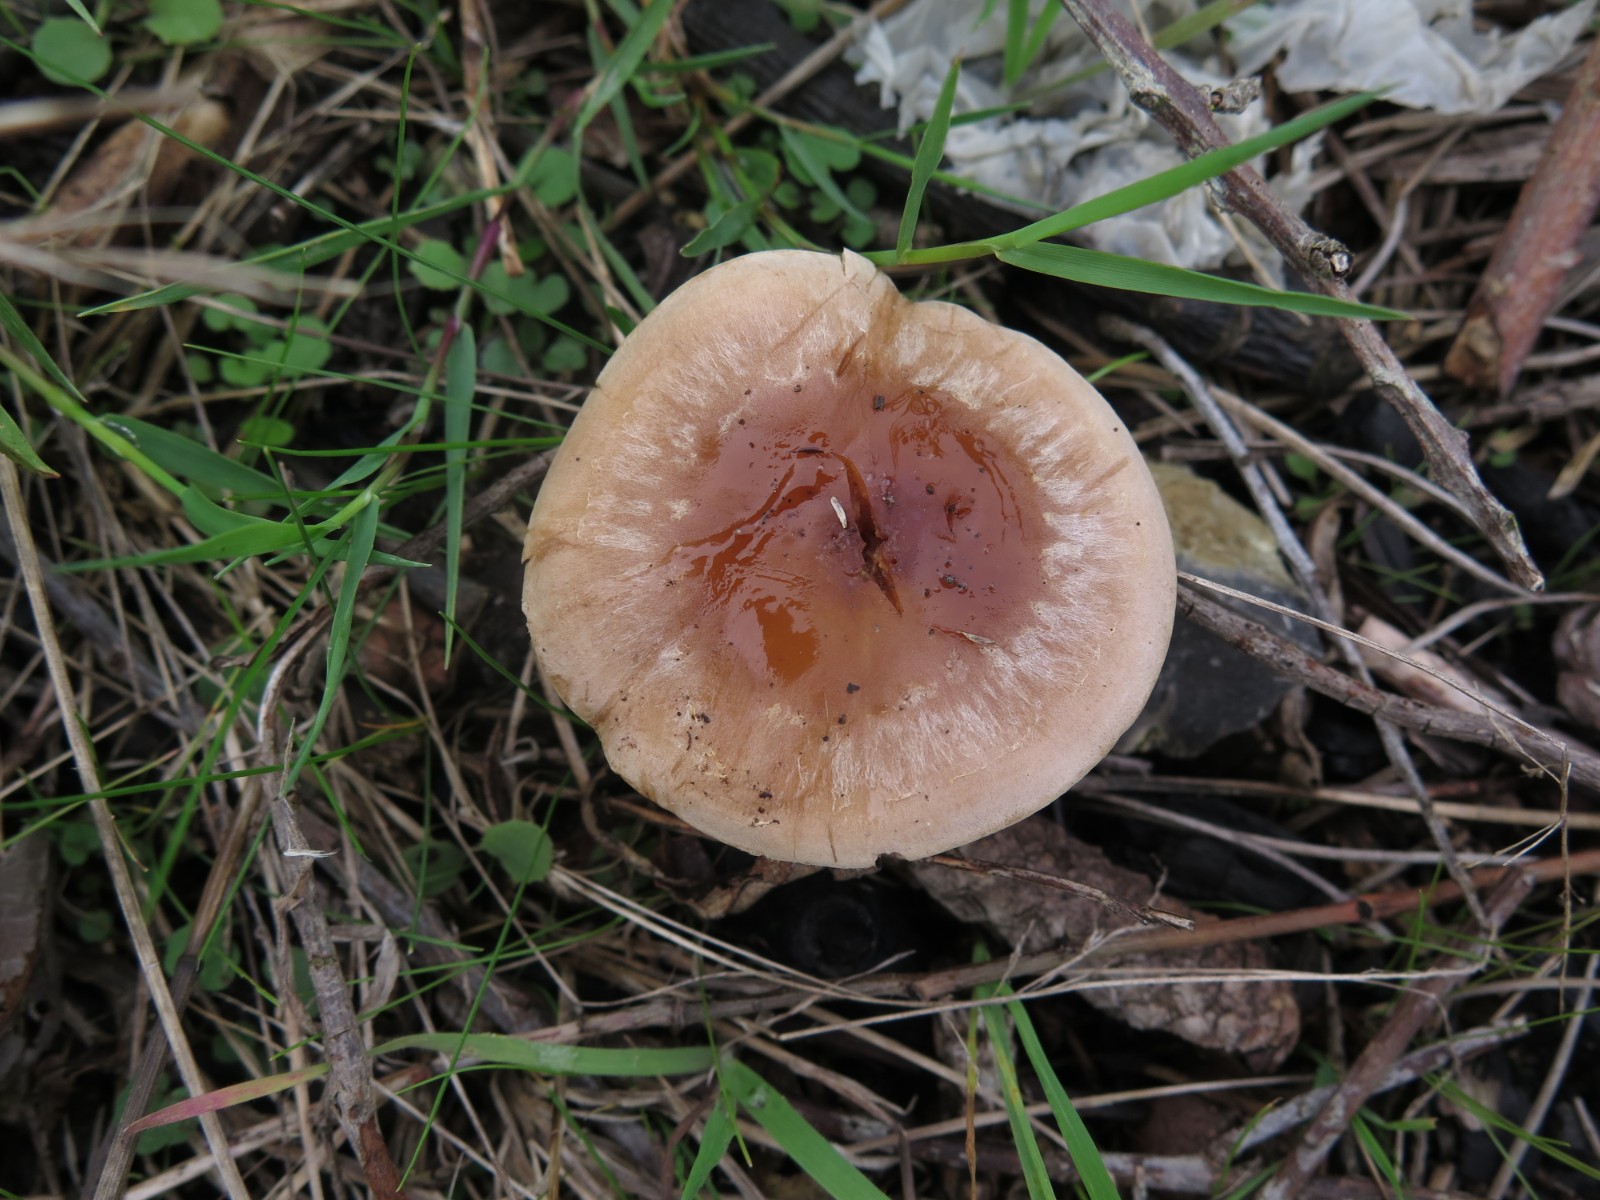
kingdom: Fungi
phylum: Basidiomycota
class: Agaricomycetes
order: Agaricales
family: Hymenogastraceae
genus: Hebeloma
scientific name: Hebeloma
